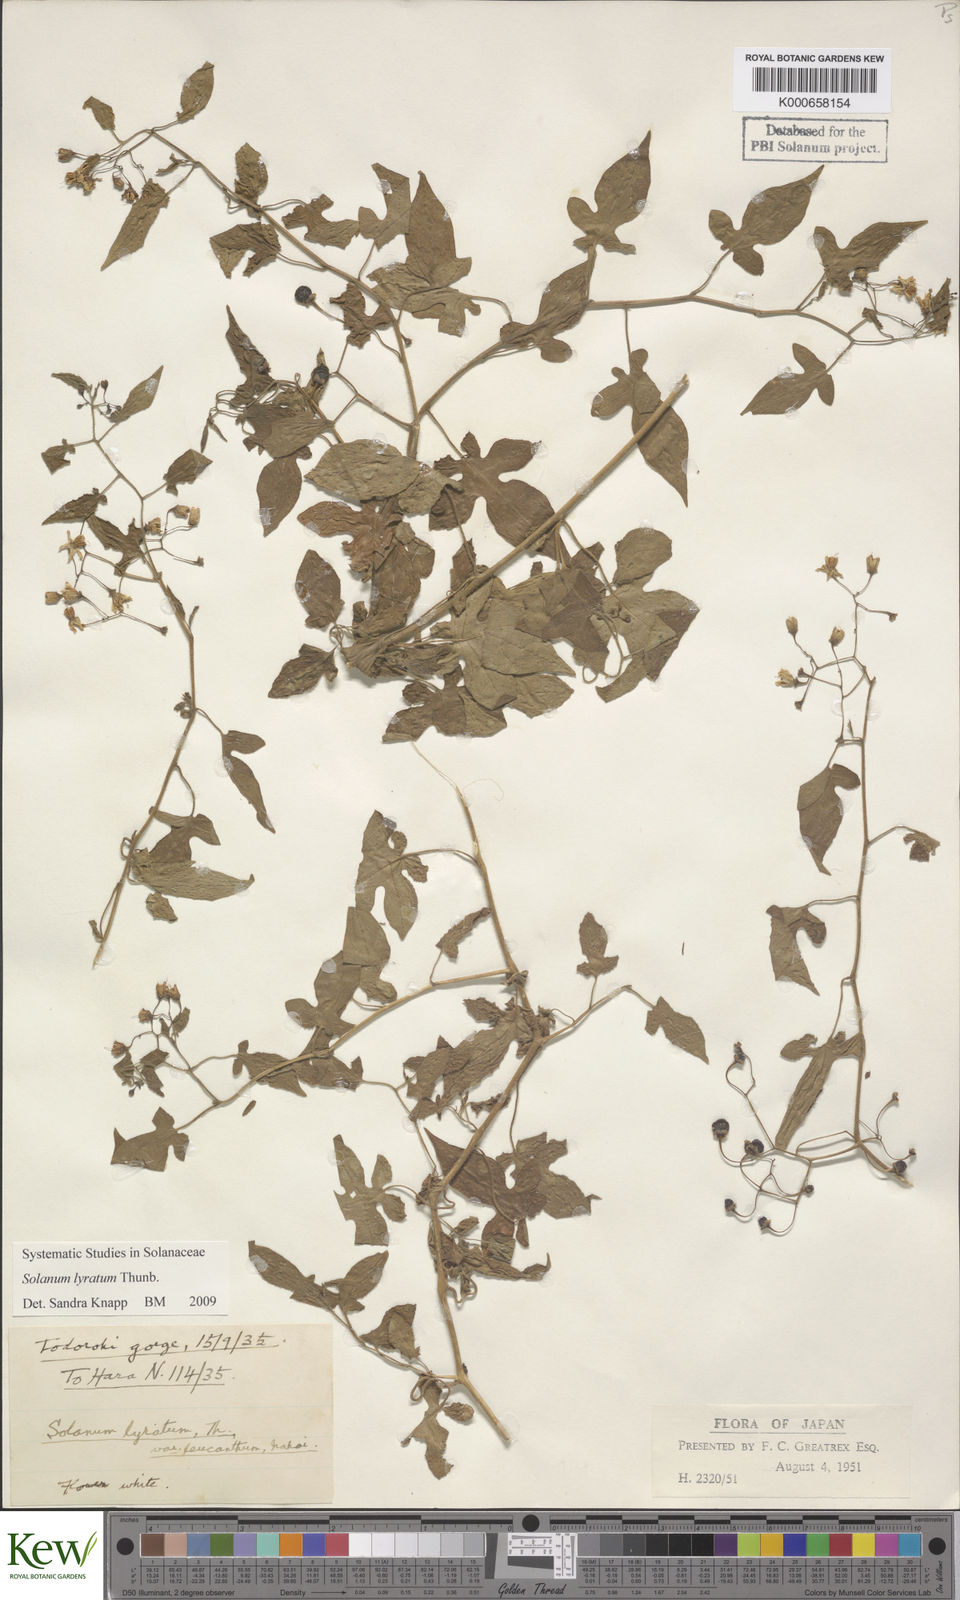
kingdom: Plantae
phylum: Tracheophyta
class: Magnoliopsida
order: Solanales
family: Solanaceae
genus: Solanum
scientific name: Solanum lyratum
